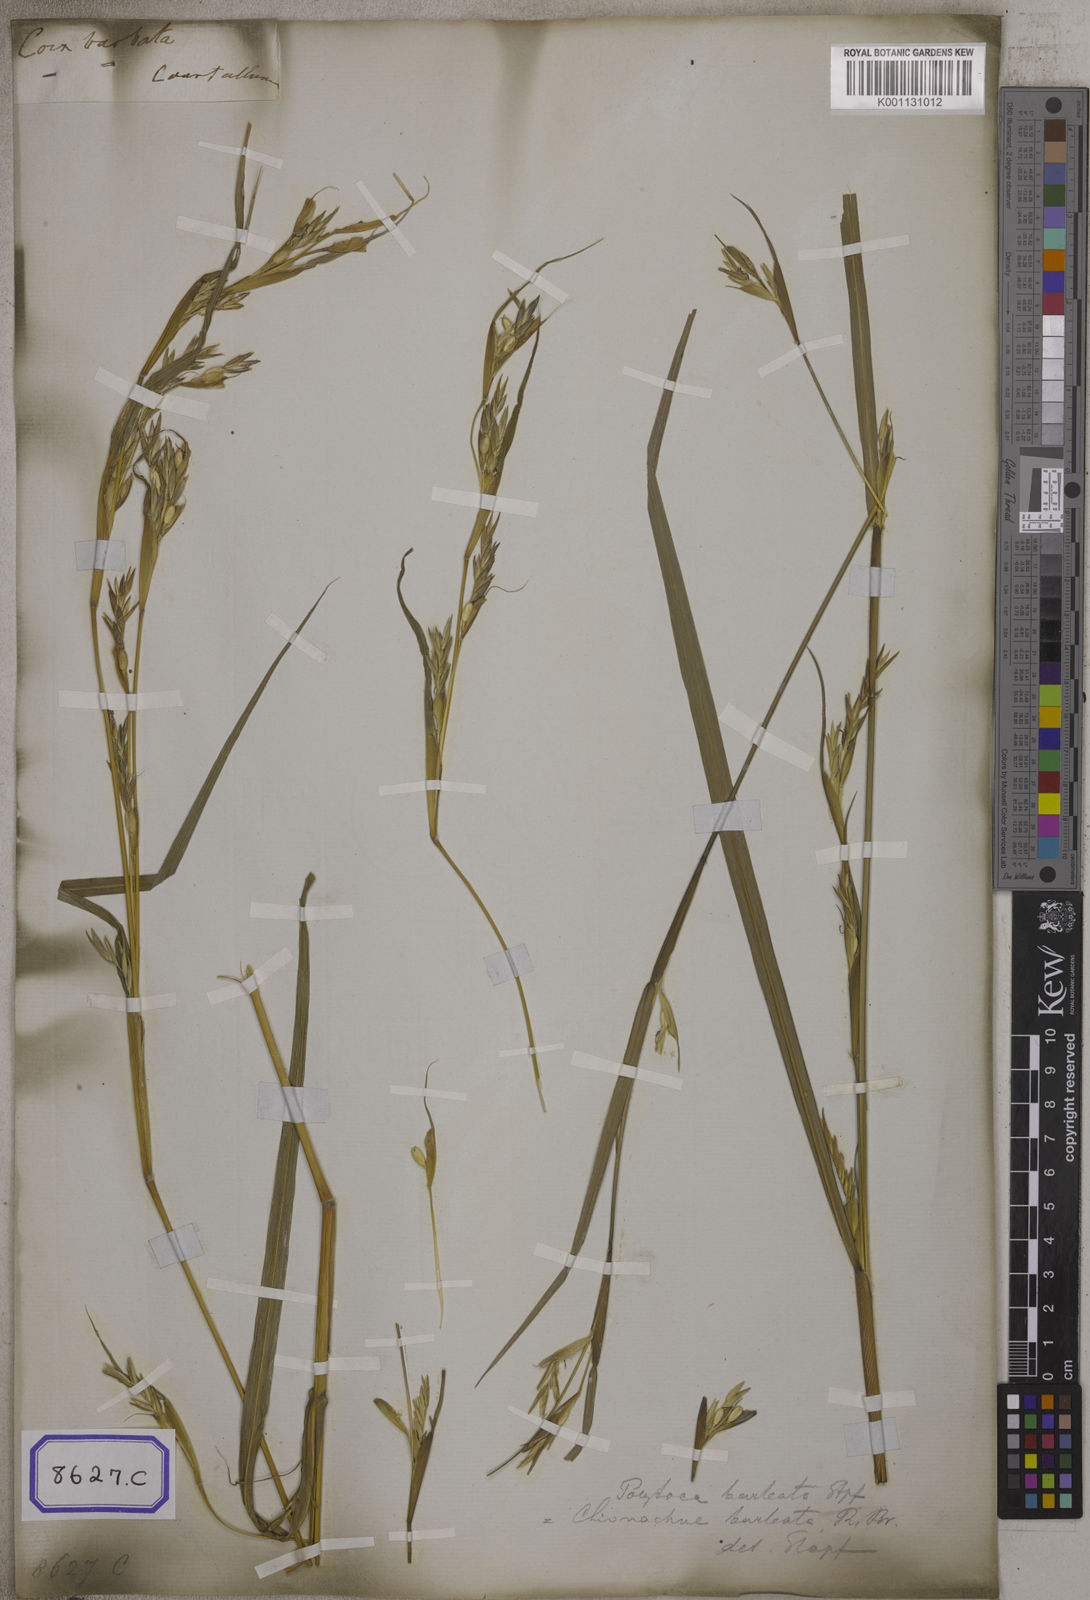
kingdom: Plantae
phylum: Tracheophyta
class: Liliopsida
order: Poales
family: Poaceae
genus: Polytoca
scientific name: Polytoca digitata
